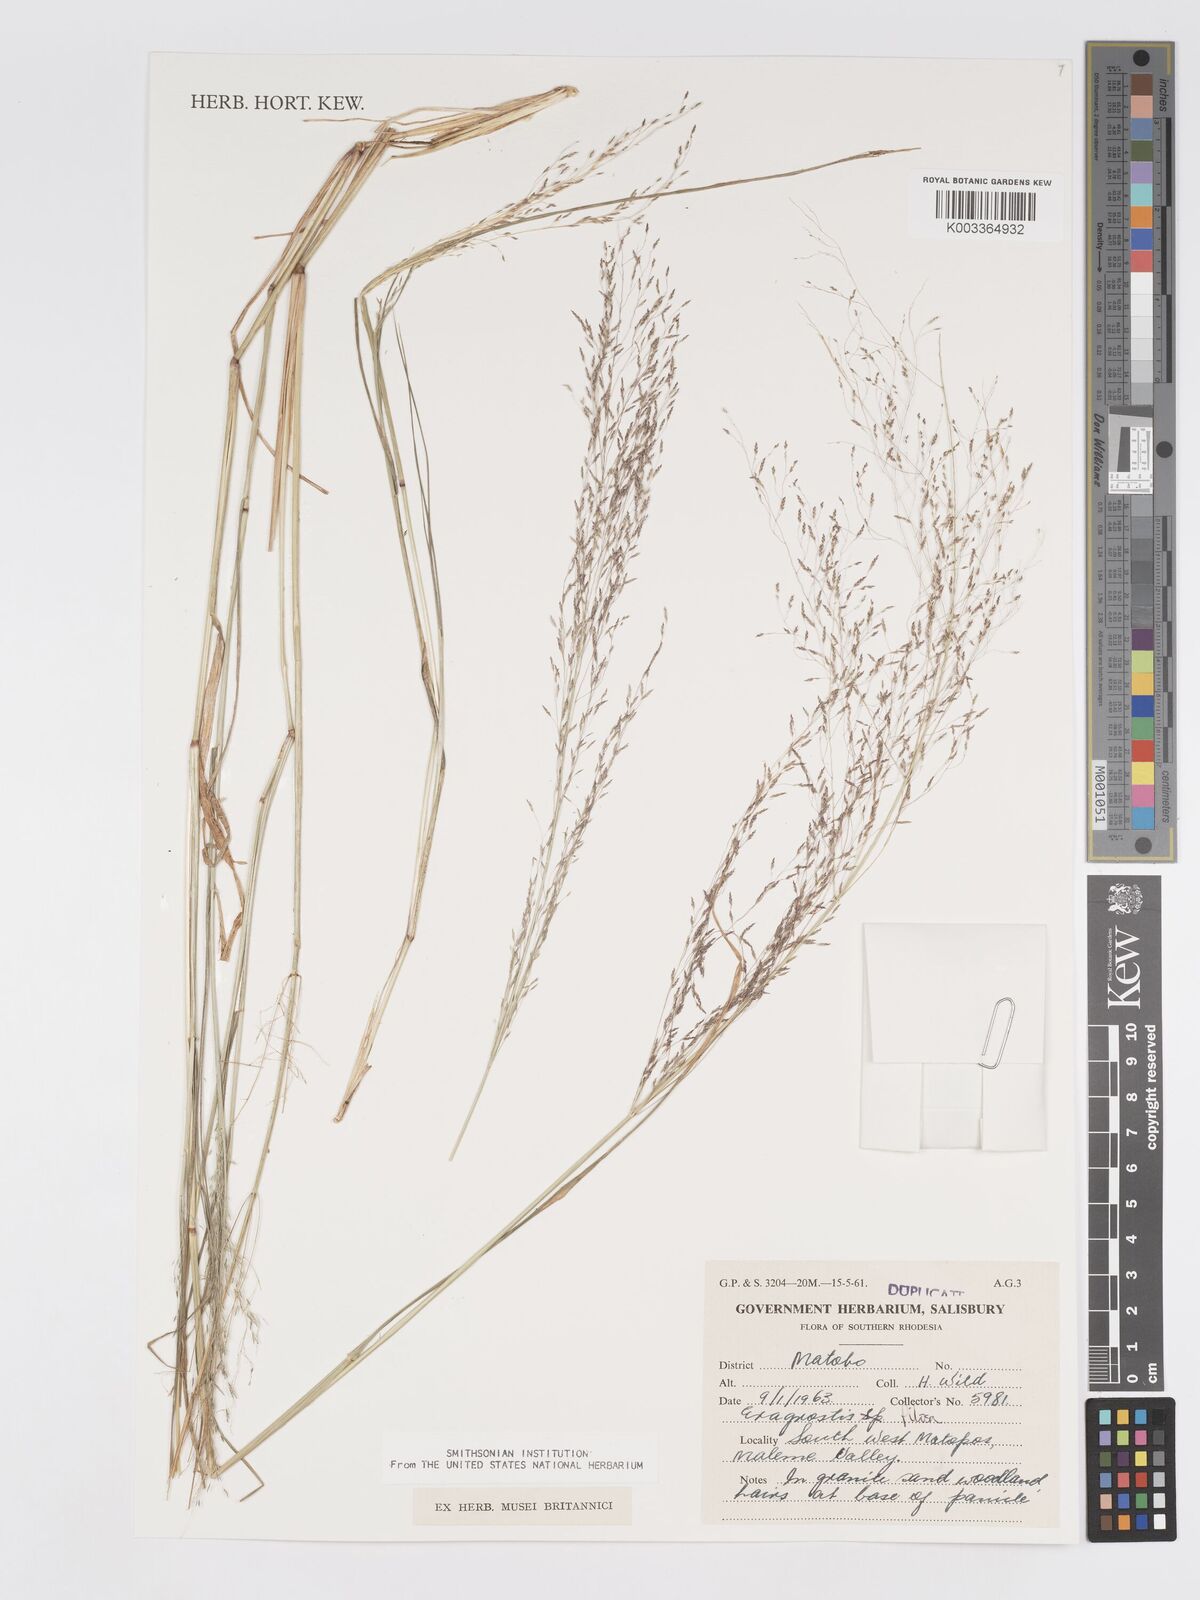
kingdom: Plantae
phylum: Tracheophyta
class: Liliopsida
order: Poales
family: Poaceae
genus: Eragrostis
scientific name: Eragrostis pilosa
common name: Indian lovegrass
